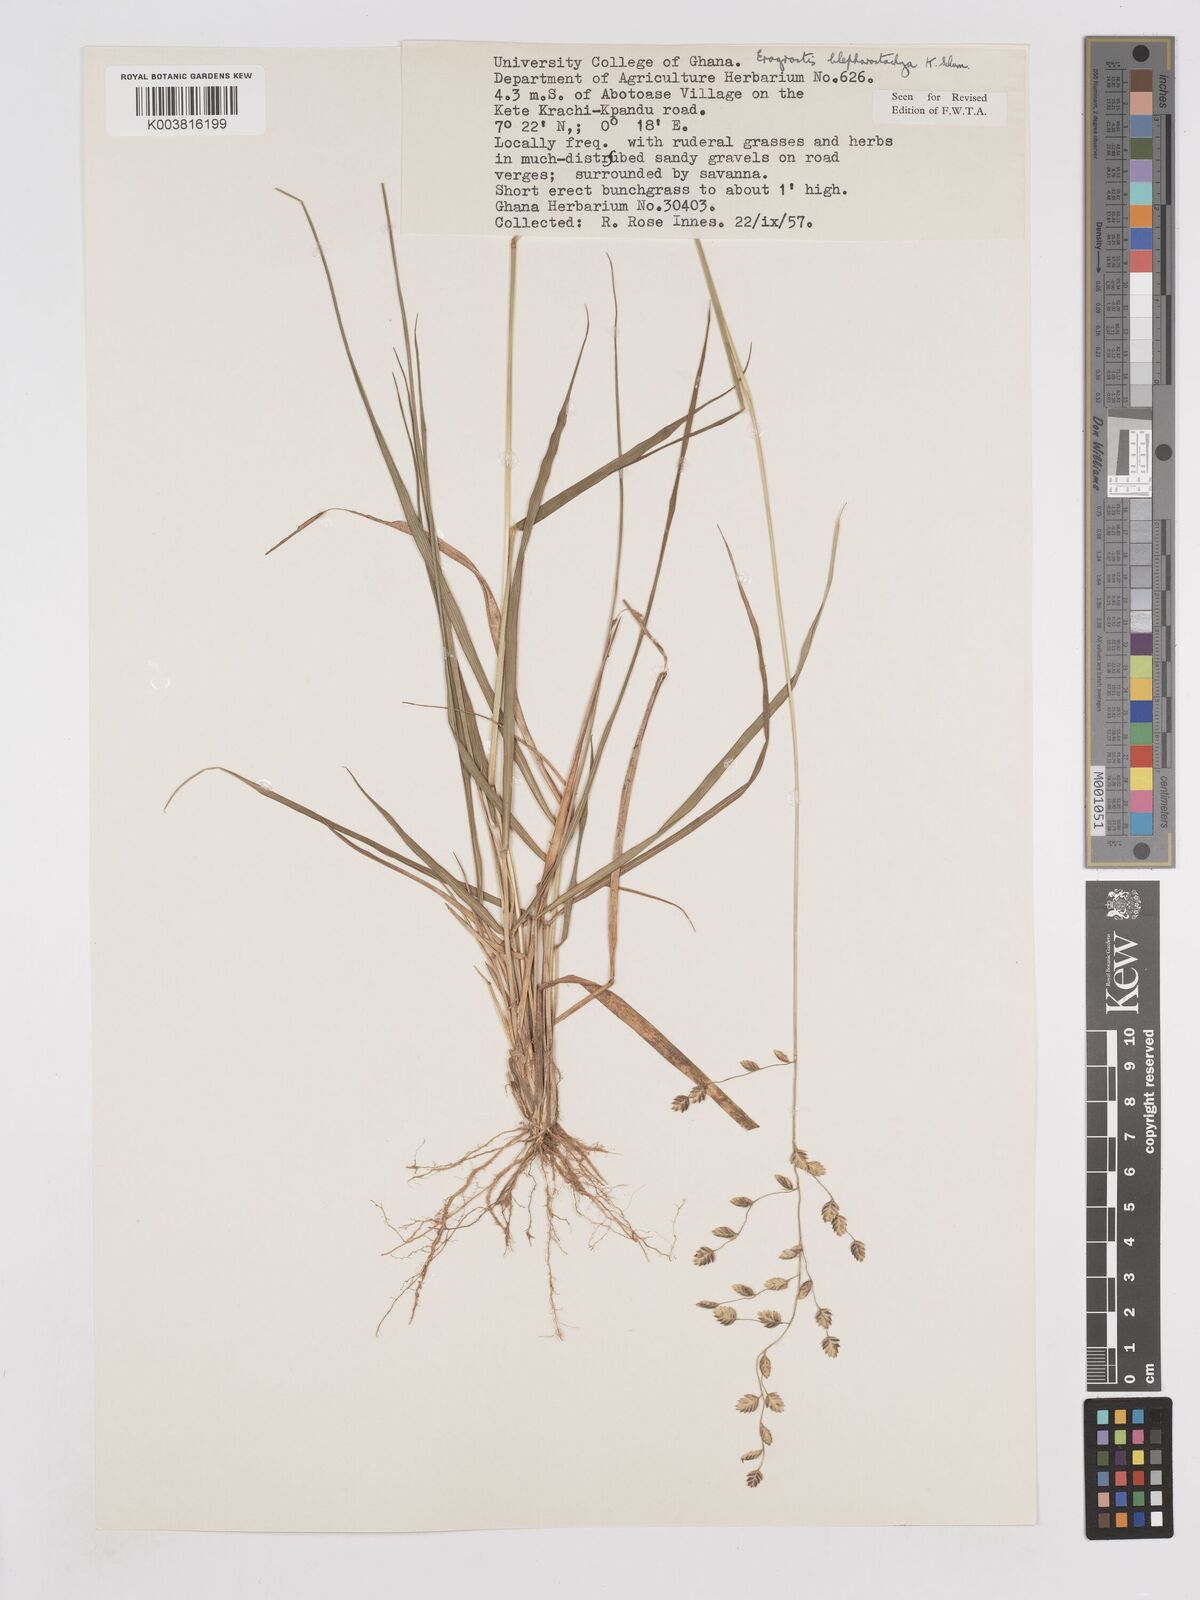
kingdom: Plantae
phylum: Tracheophyta
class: Liliopsida
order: Poales
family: Poaceae
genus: Eragrostis
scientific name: Eragrostis blepharostachya
